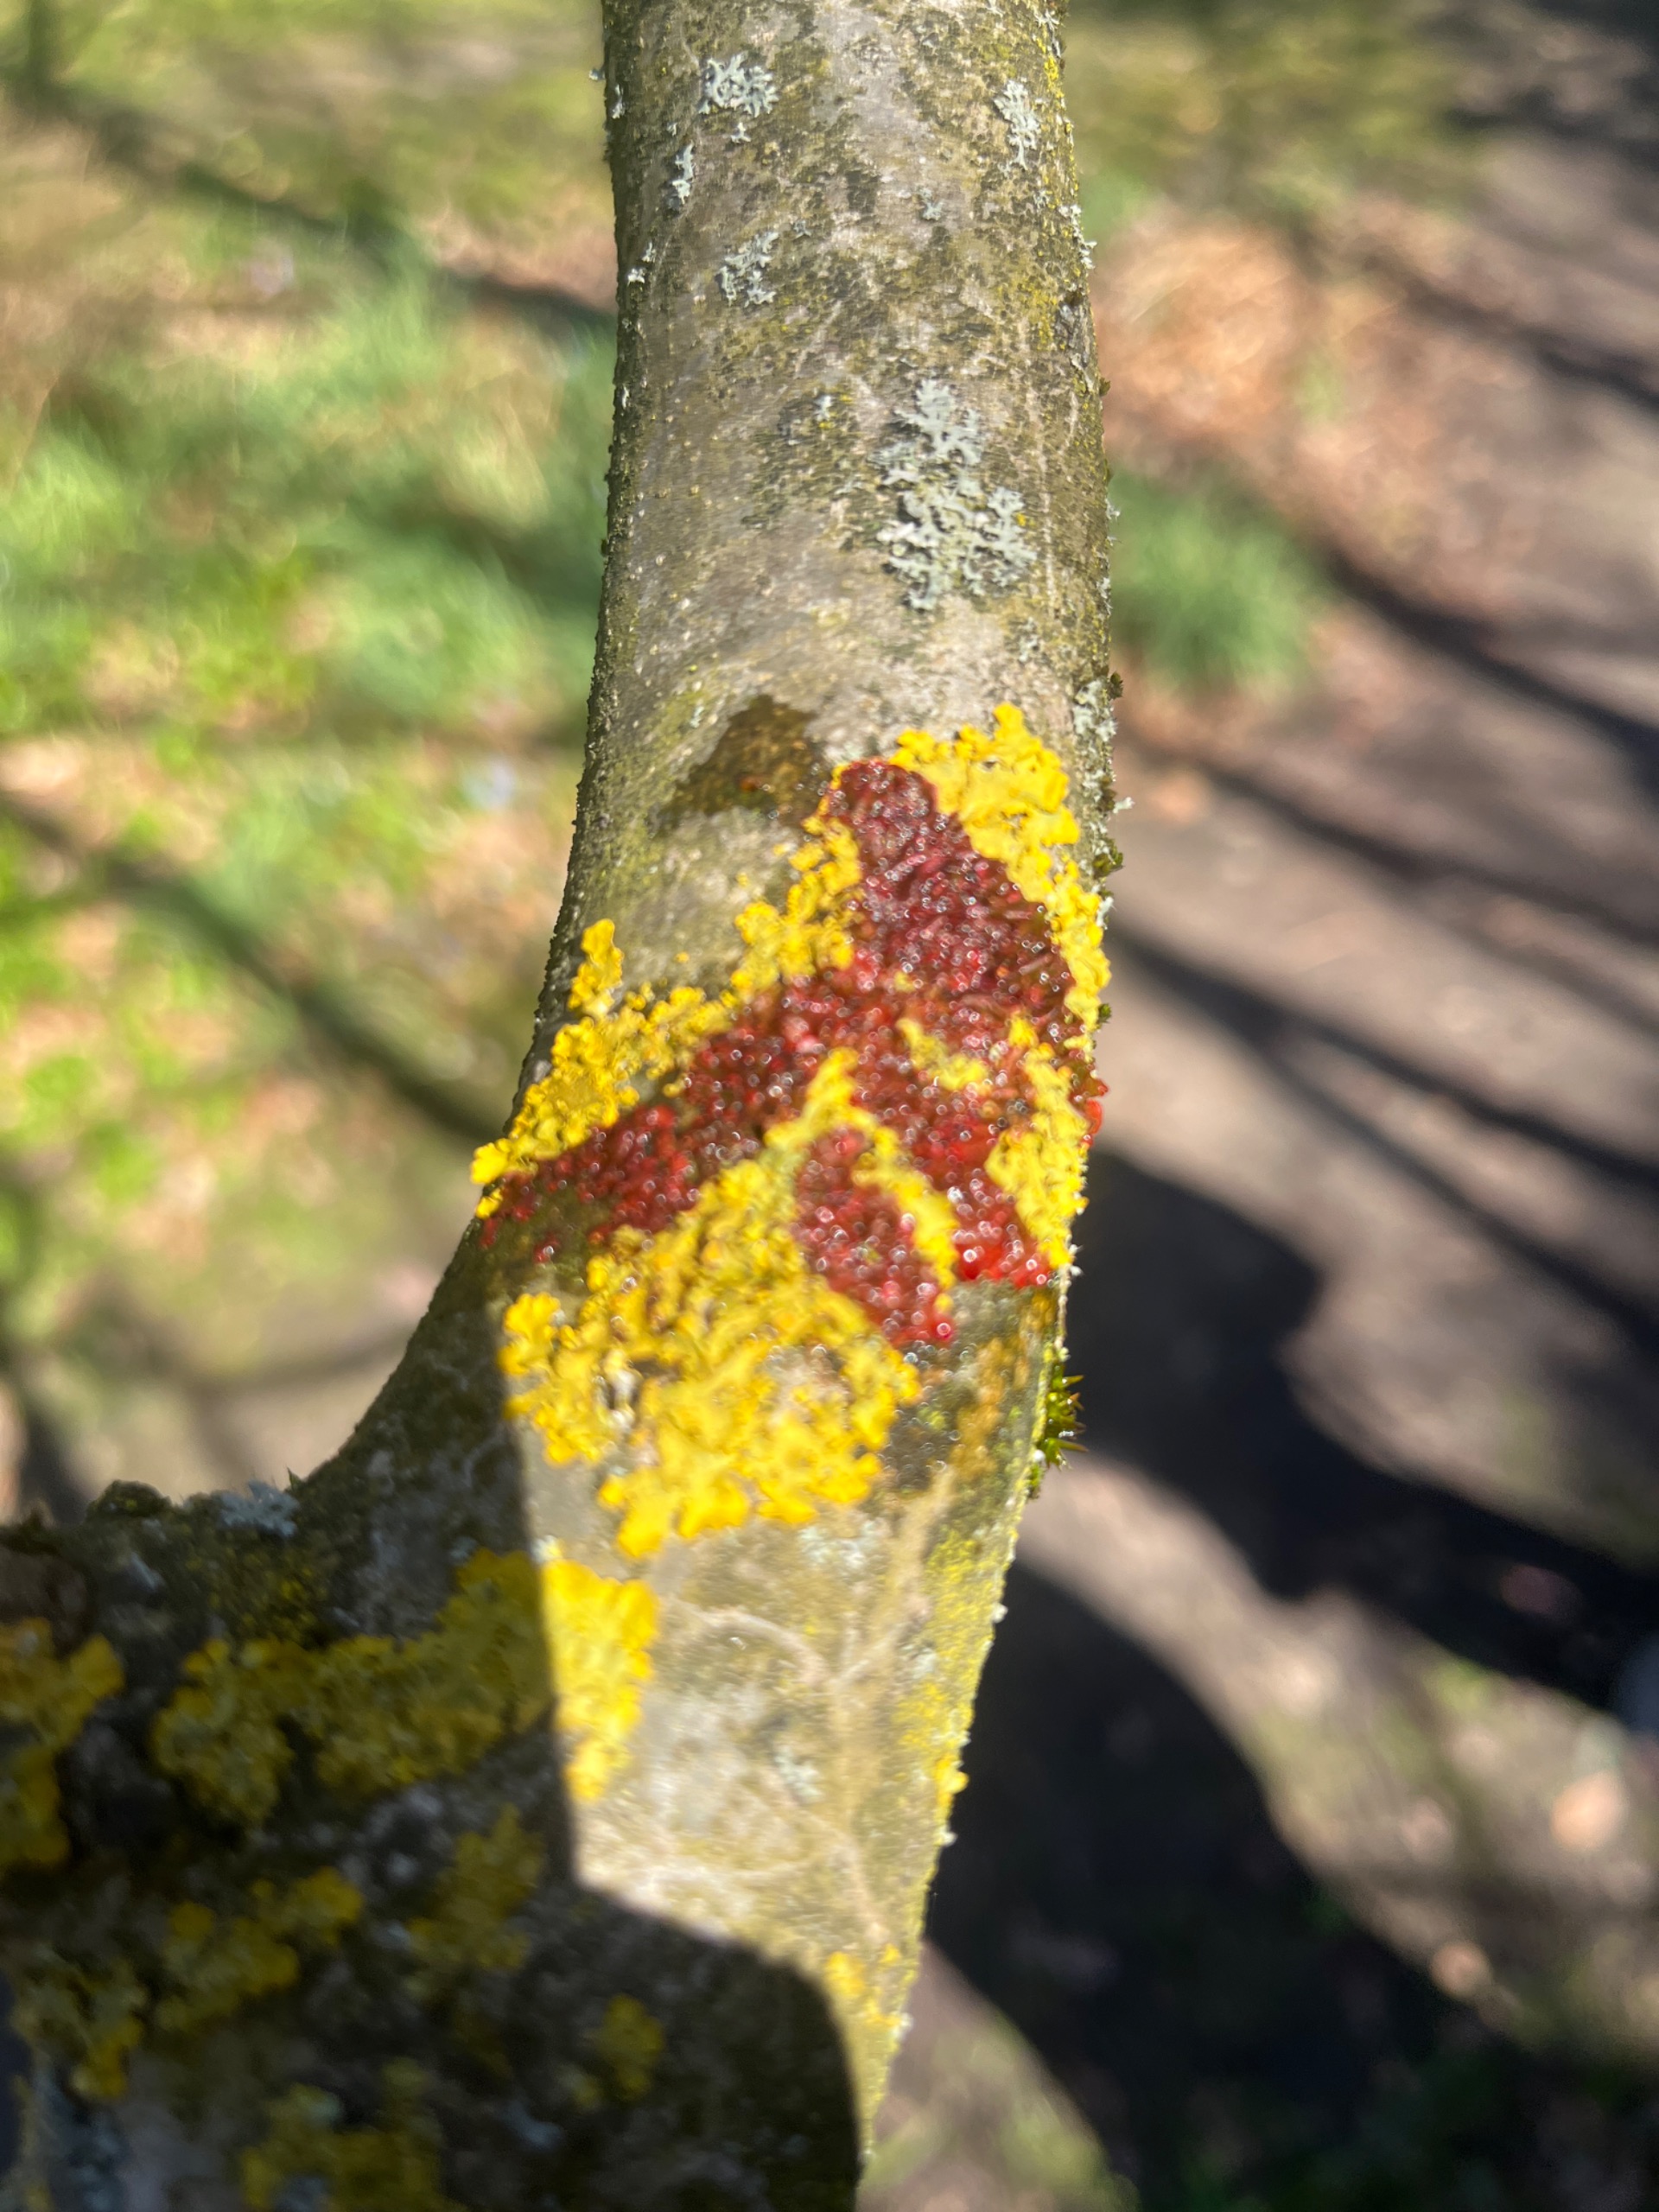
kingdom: Fungi
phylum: Ascomycota
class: Lecanoromycetes
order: Teloschistales
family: Teloschistaceae
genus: Xanthoria
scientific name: Xanthoria parietina
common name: Almindelig væggelav
